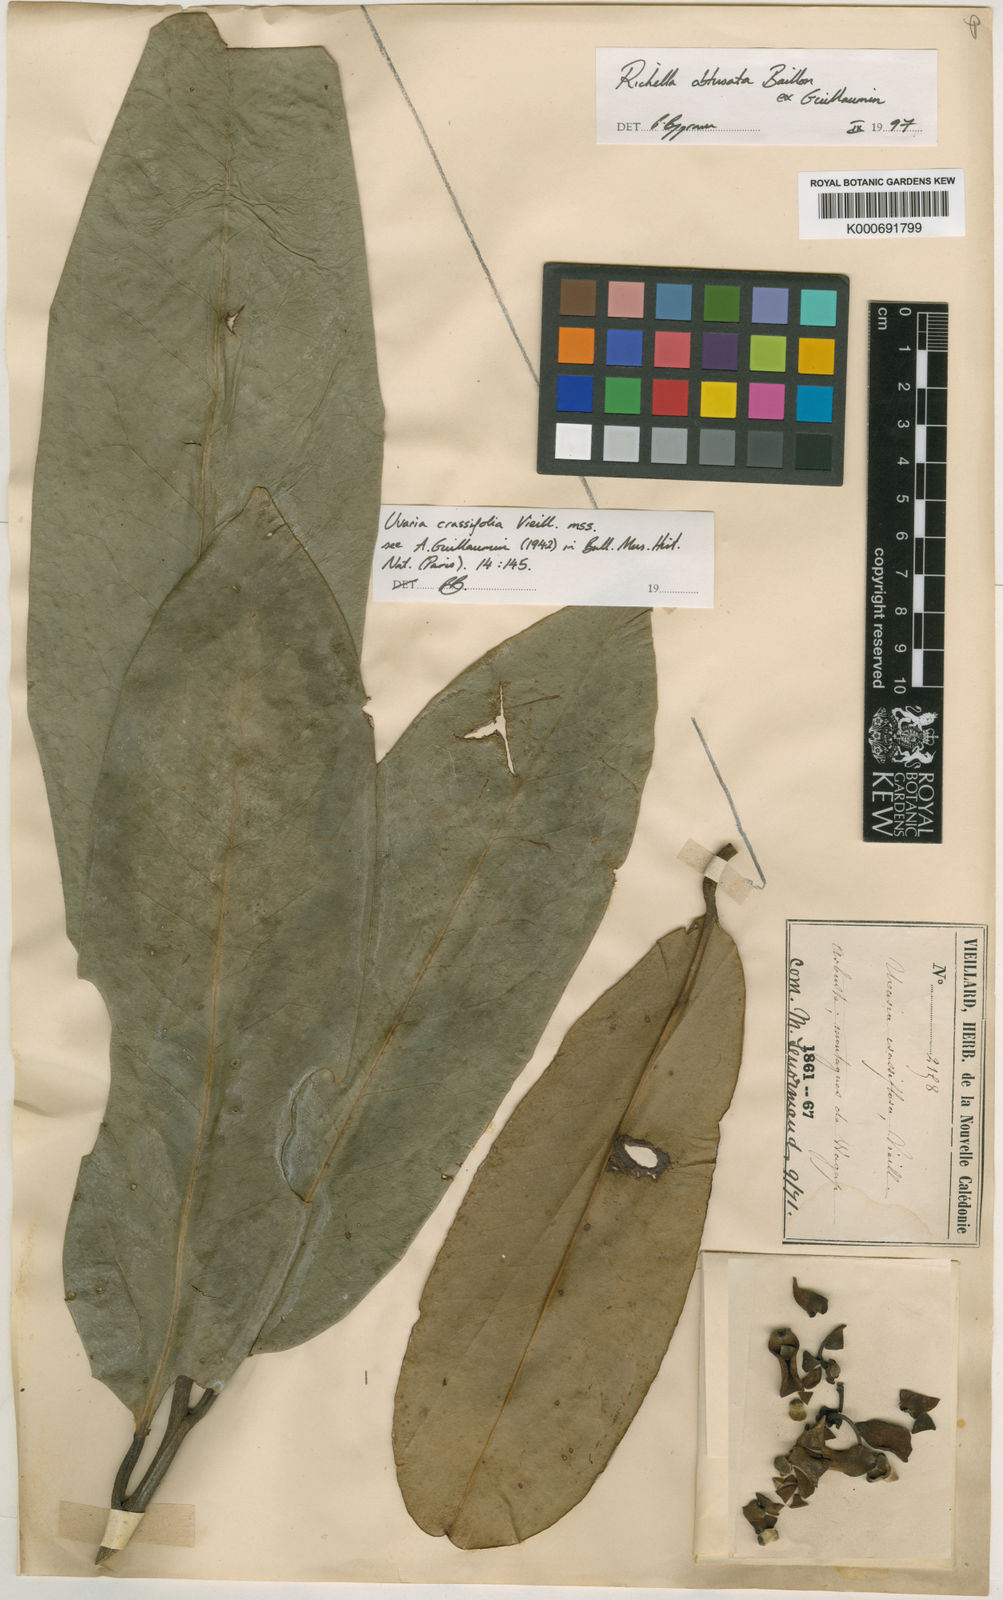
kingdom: Plantae
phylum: Tracheophyta
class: Magnoliopsida
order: Magnoliales
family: Annonaceae
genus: Richella
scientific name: Richella
